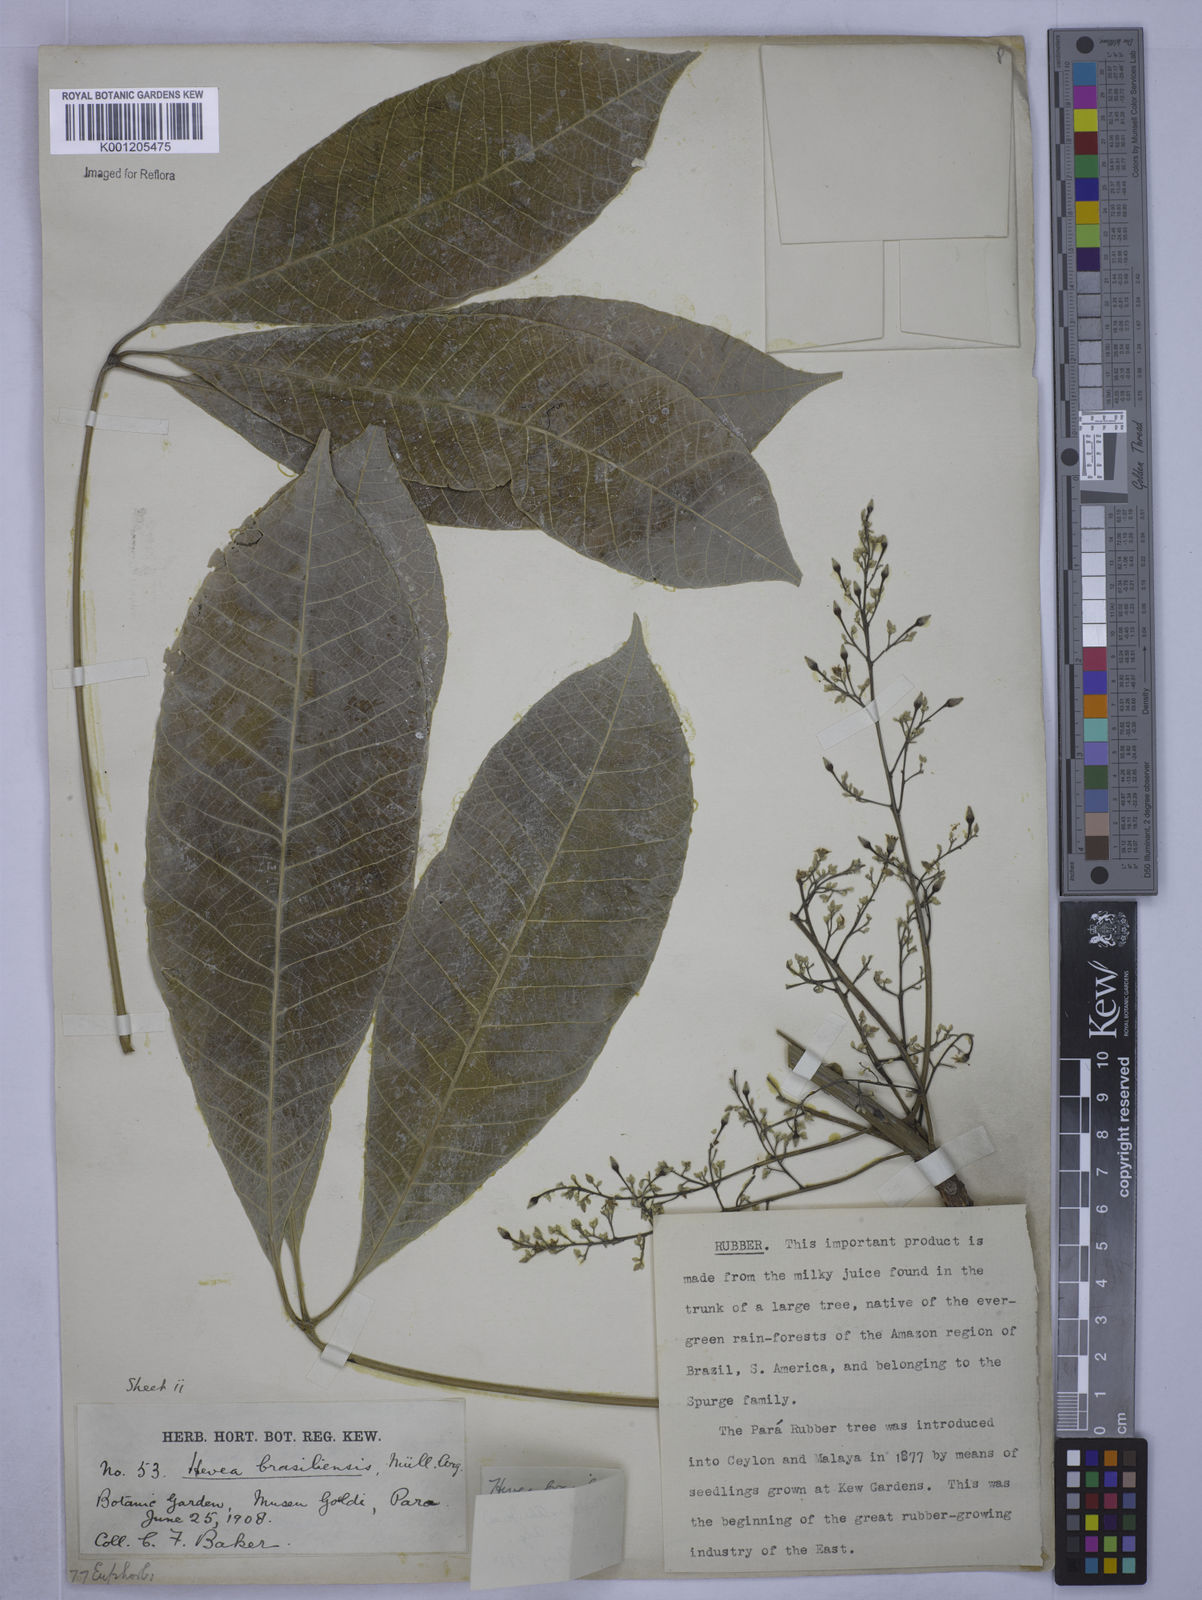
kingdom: Plantae
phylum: Tracheophyta
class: Magnoliopsida
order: Malpighiales
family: Euphorbiaceae
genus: Hevea
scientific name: Hevea
